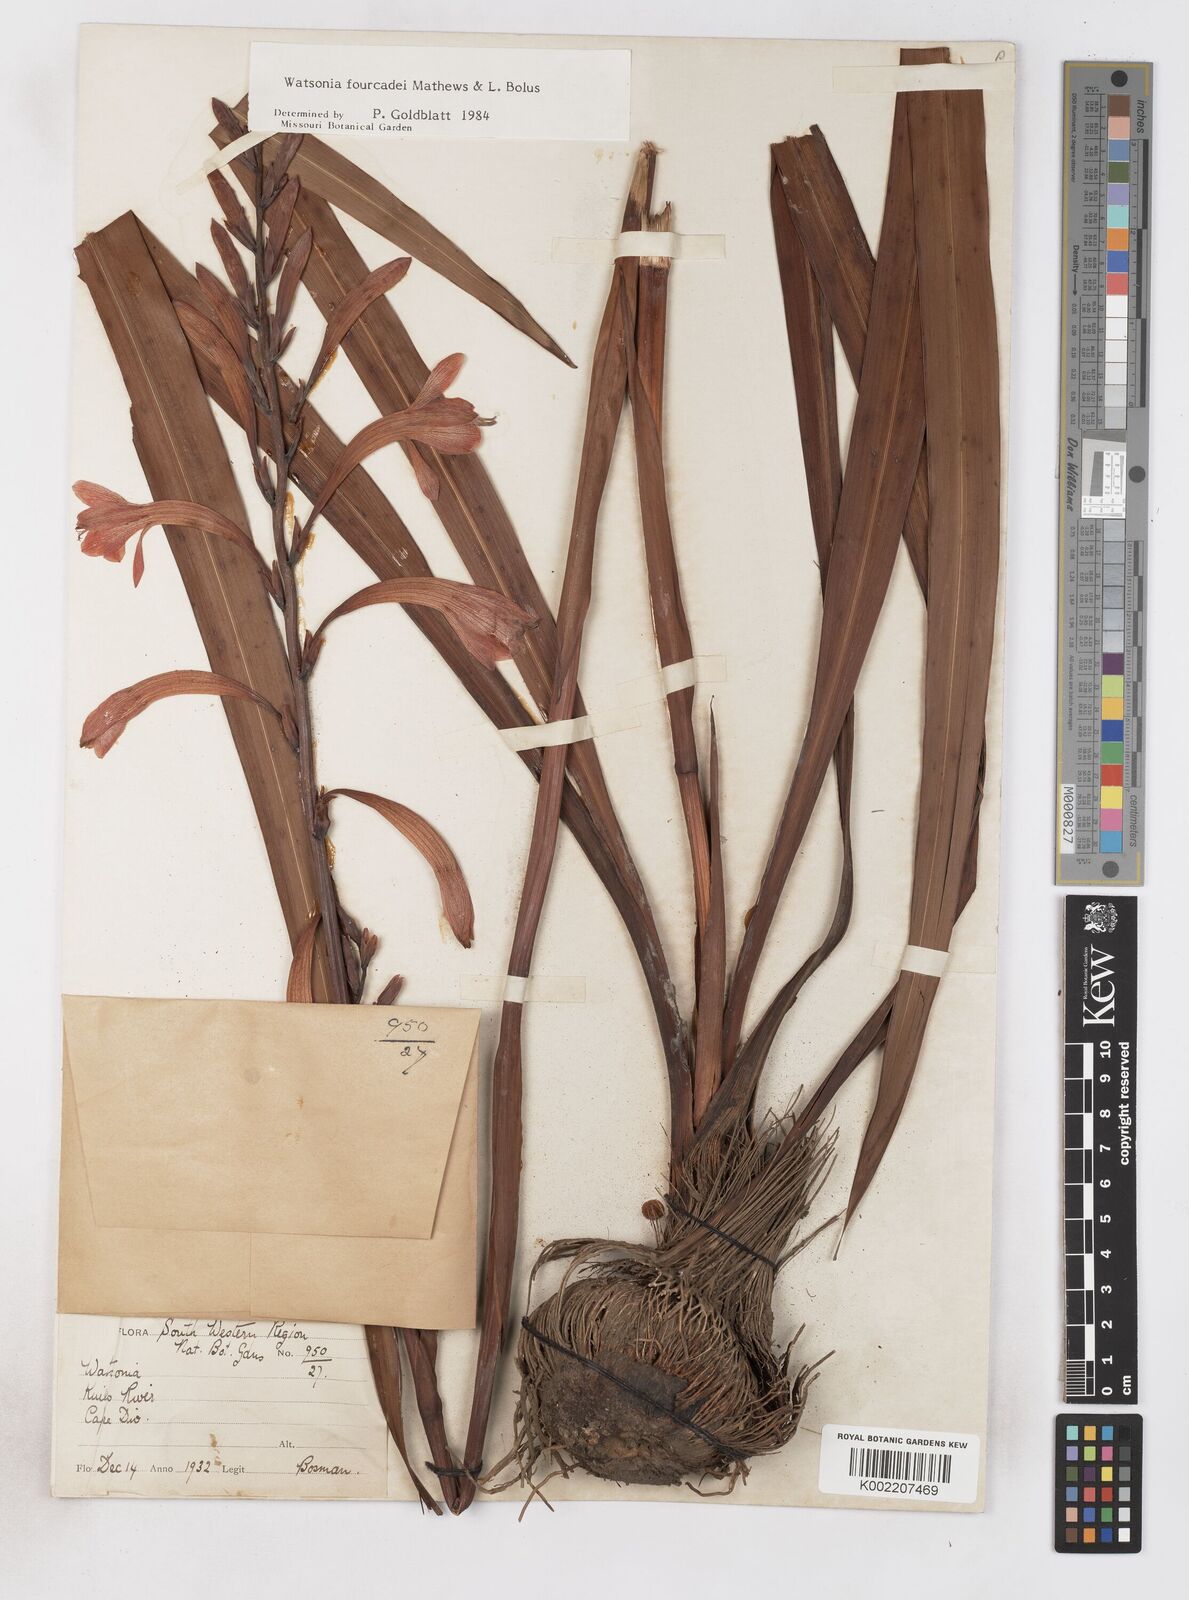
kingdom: Plantae
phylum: Tracheophyta
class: Liliopsida
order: Asparagales
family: Iridaceae
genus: Watsonia
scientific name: Watsonia fourcadei
